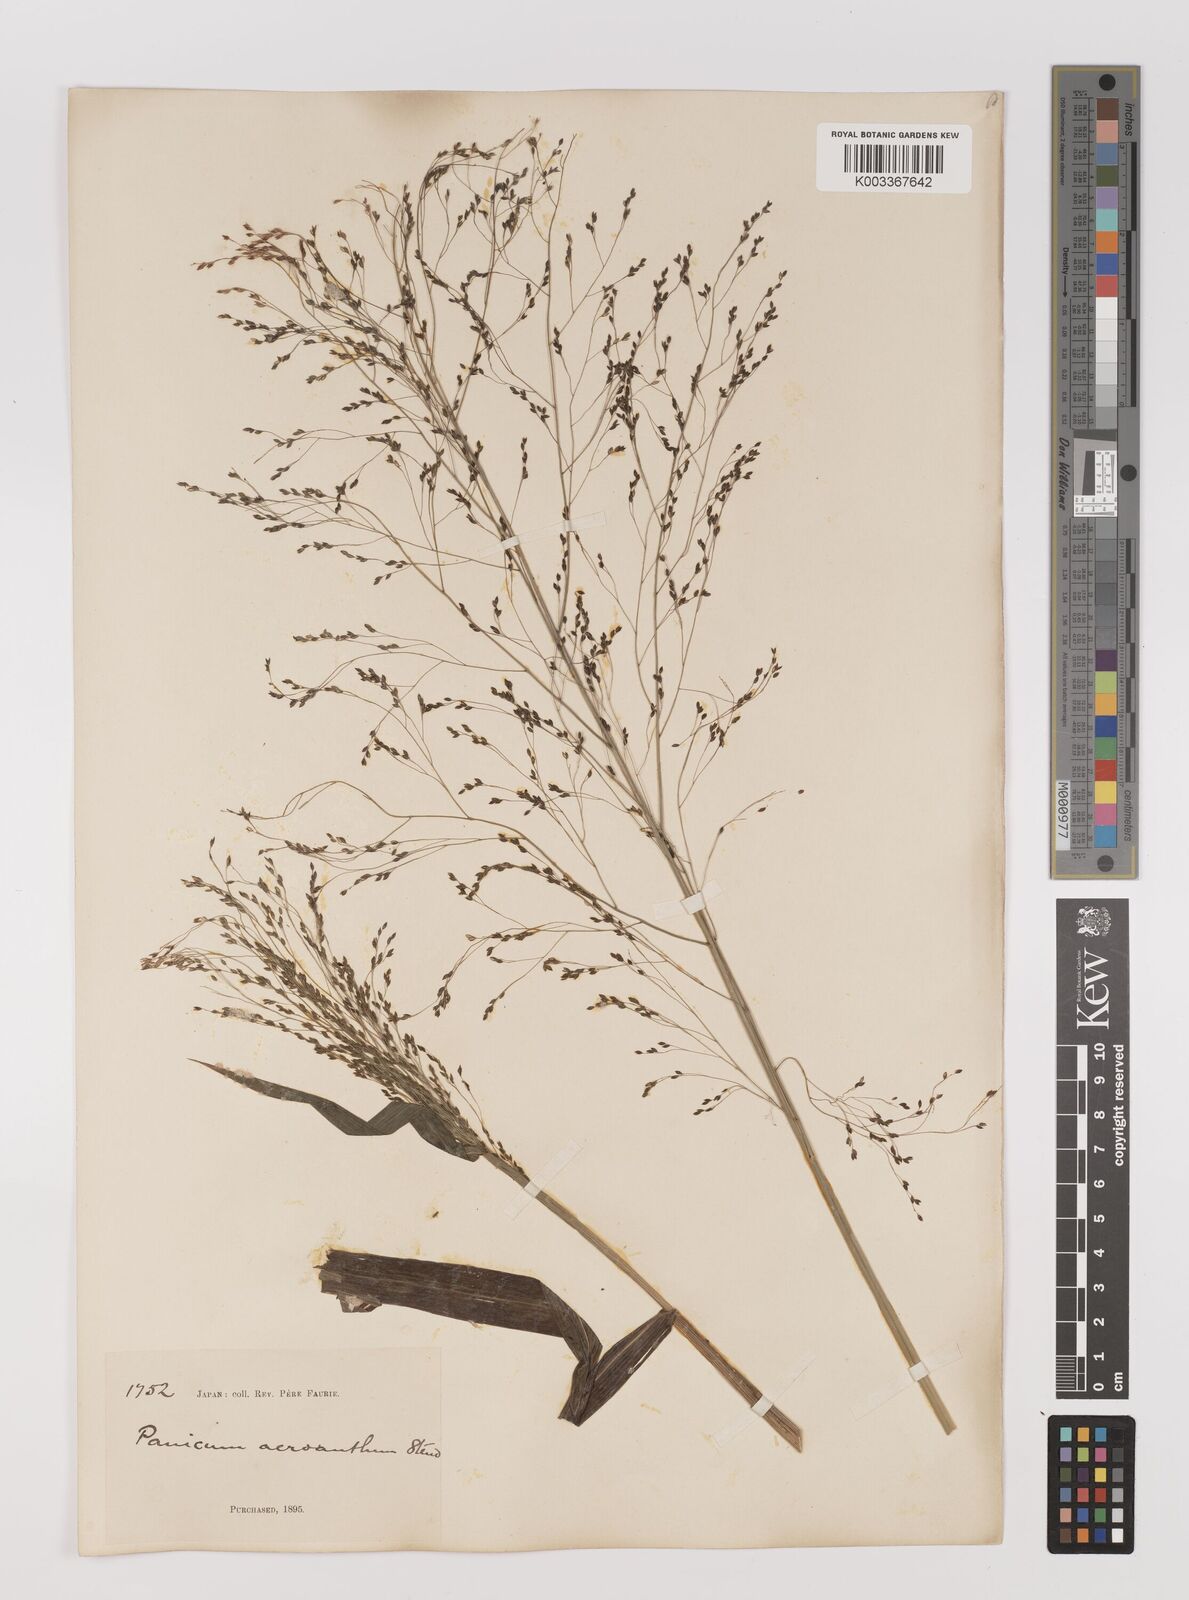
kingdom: Plantae
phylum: Tracheophyta
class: Liliopsida
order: Poales
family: Poaceae
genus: Panicum
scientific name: Panicum bisulcatum
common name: Japanese panicgrass
